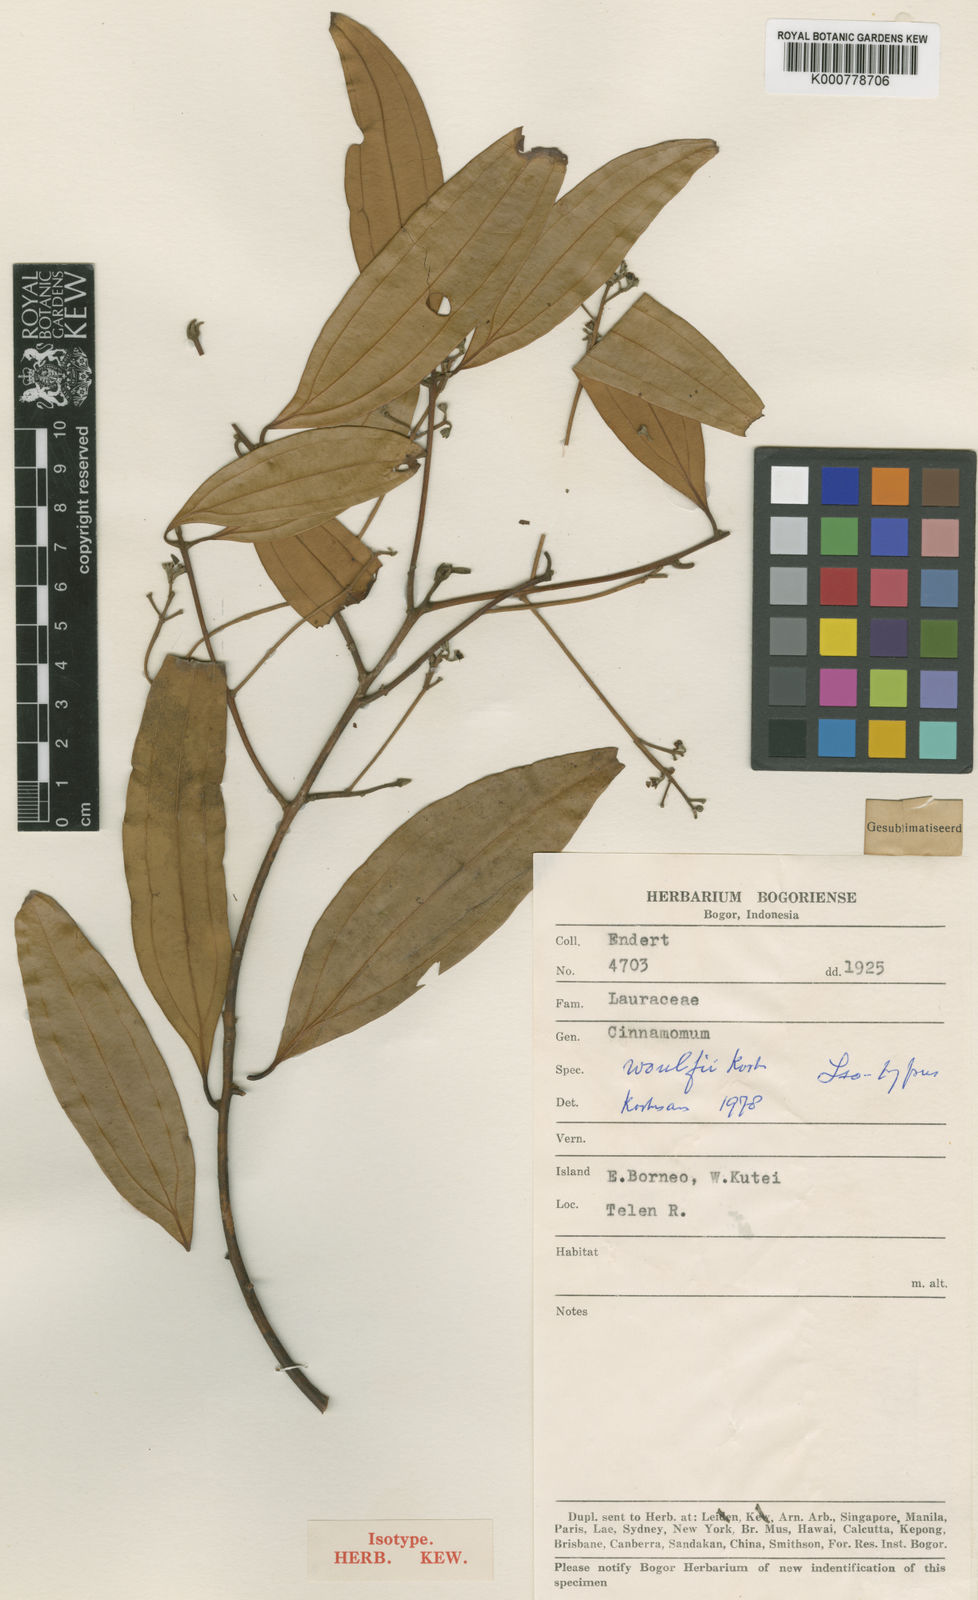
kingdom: Plantae
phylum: Tracheophyta
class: Magnoliopsida
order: Laurales
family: Lauraceae
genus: Cinnamomum
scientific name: Cinnamomum woulfei
